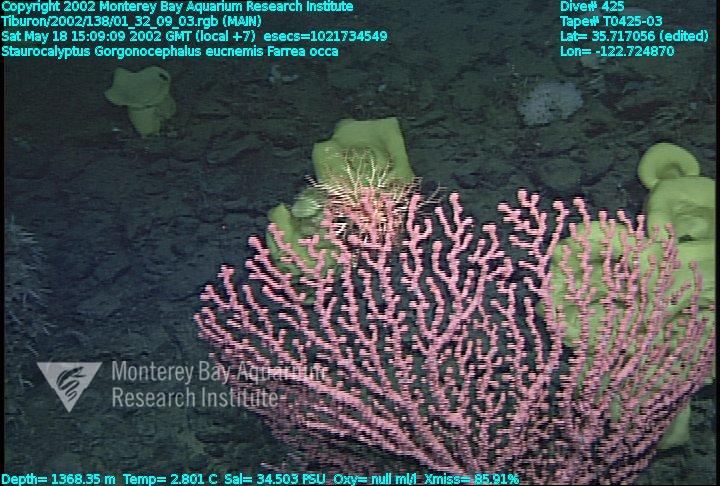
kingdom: Animalia
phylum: Porifera
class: Hexactinellida
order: Lyssacinosida
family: Rossellidae
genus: Staurocalyptus
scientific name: Staurocalyptus
